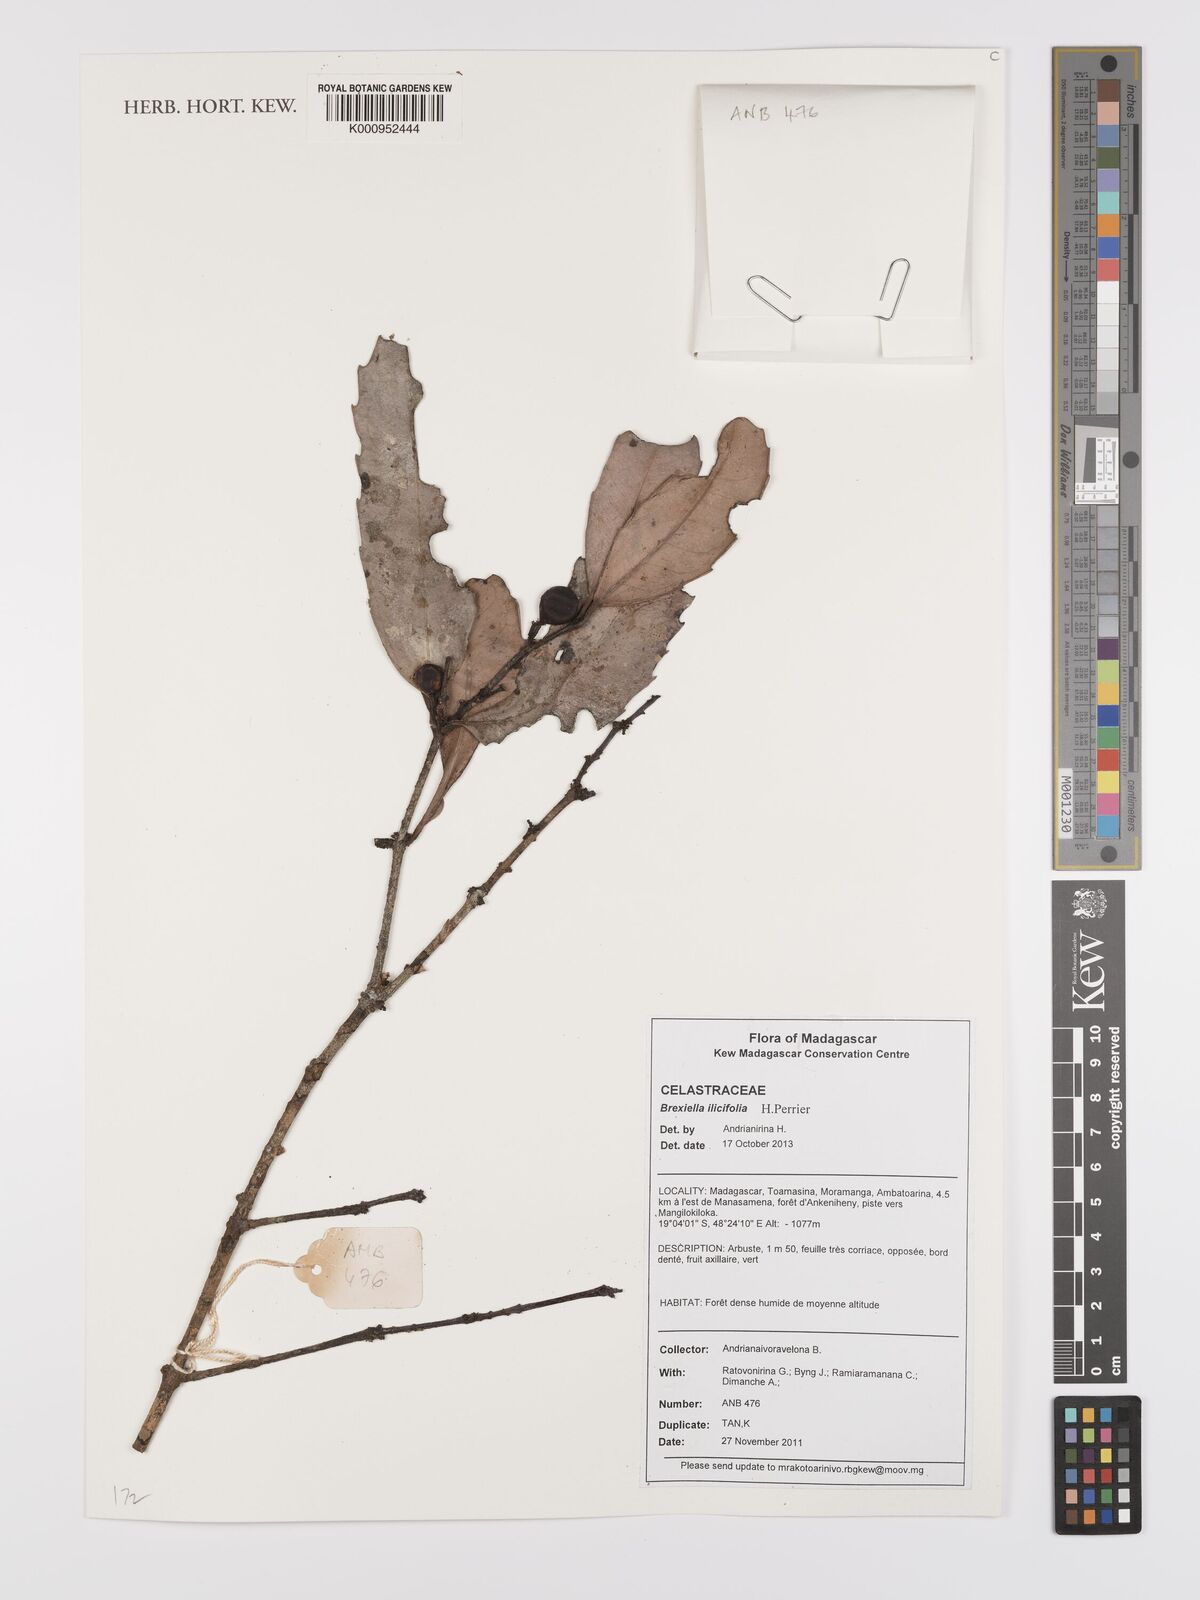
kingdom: Plantae
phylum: Tracheophyta
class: Magnoliopsida
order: Celastrales
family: Celastraceae
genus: Brexiella
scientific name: Brexiella ilicifolia
